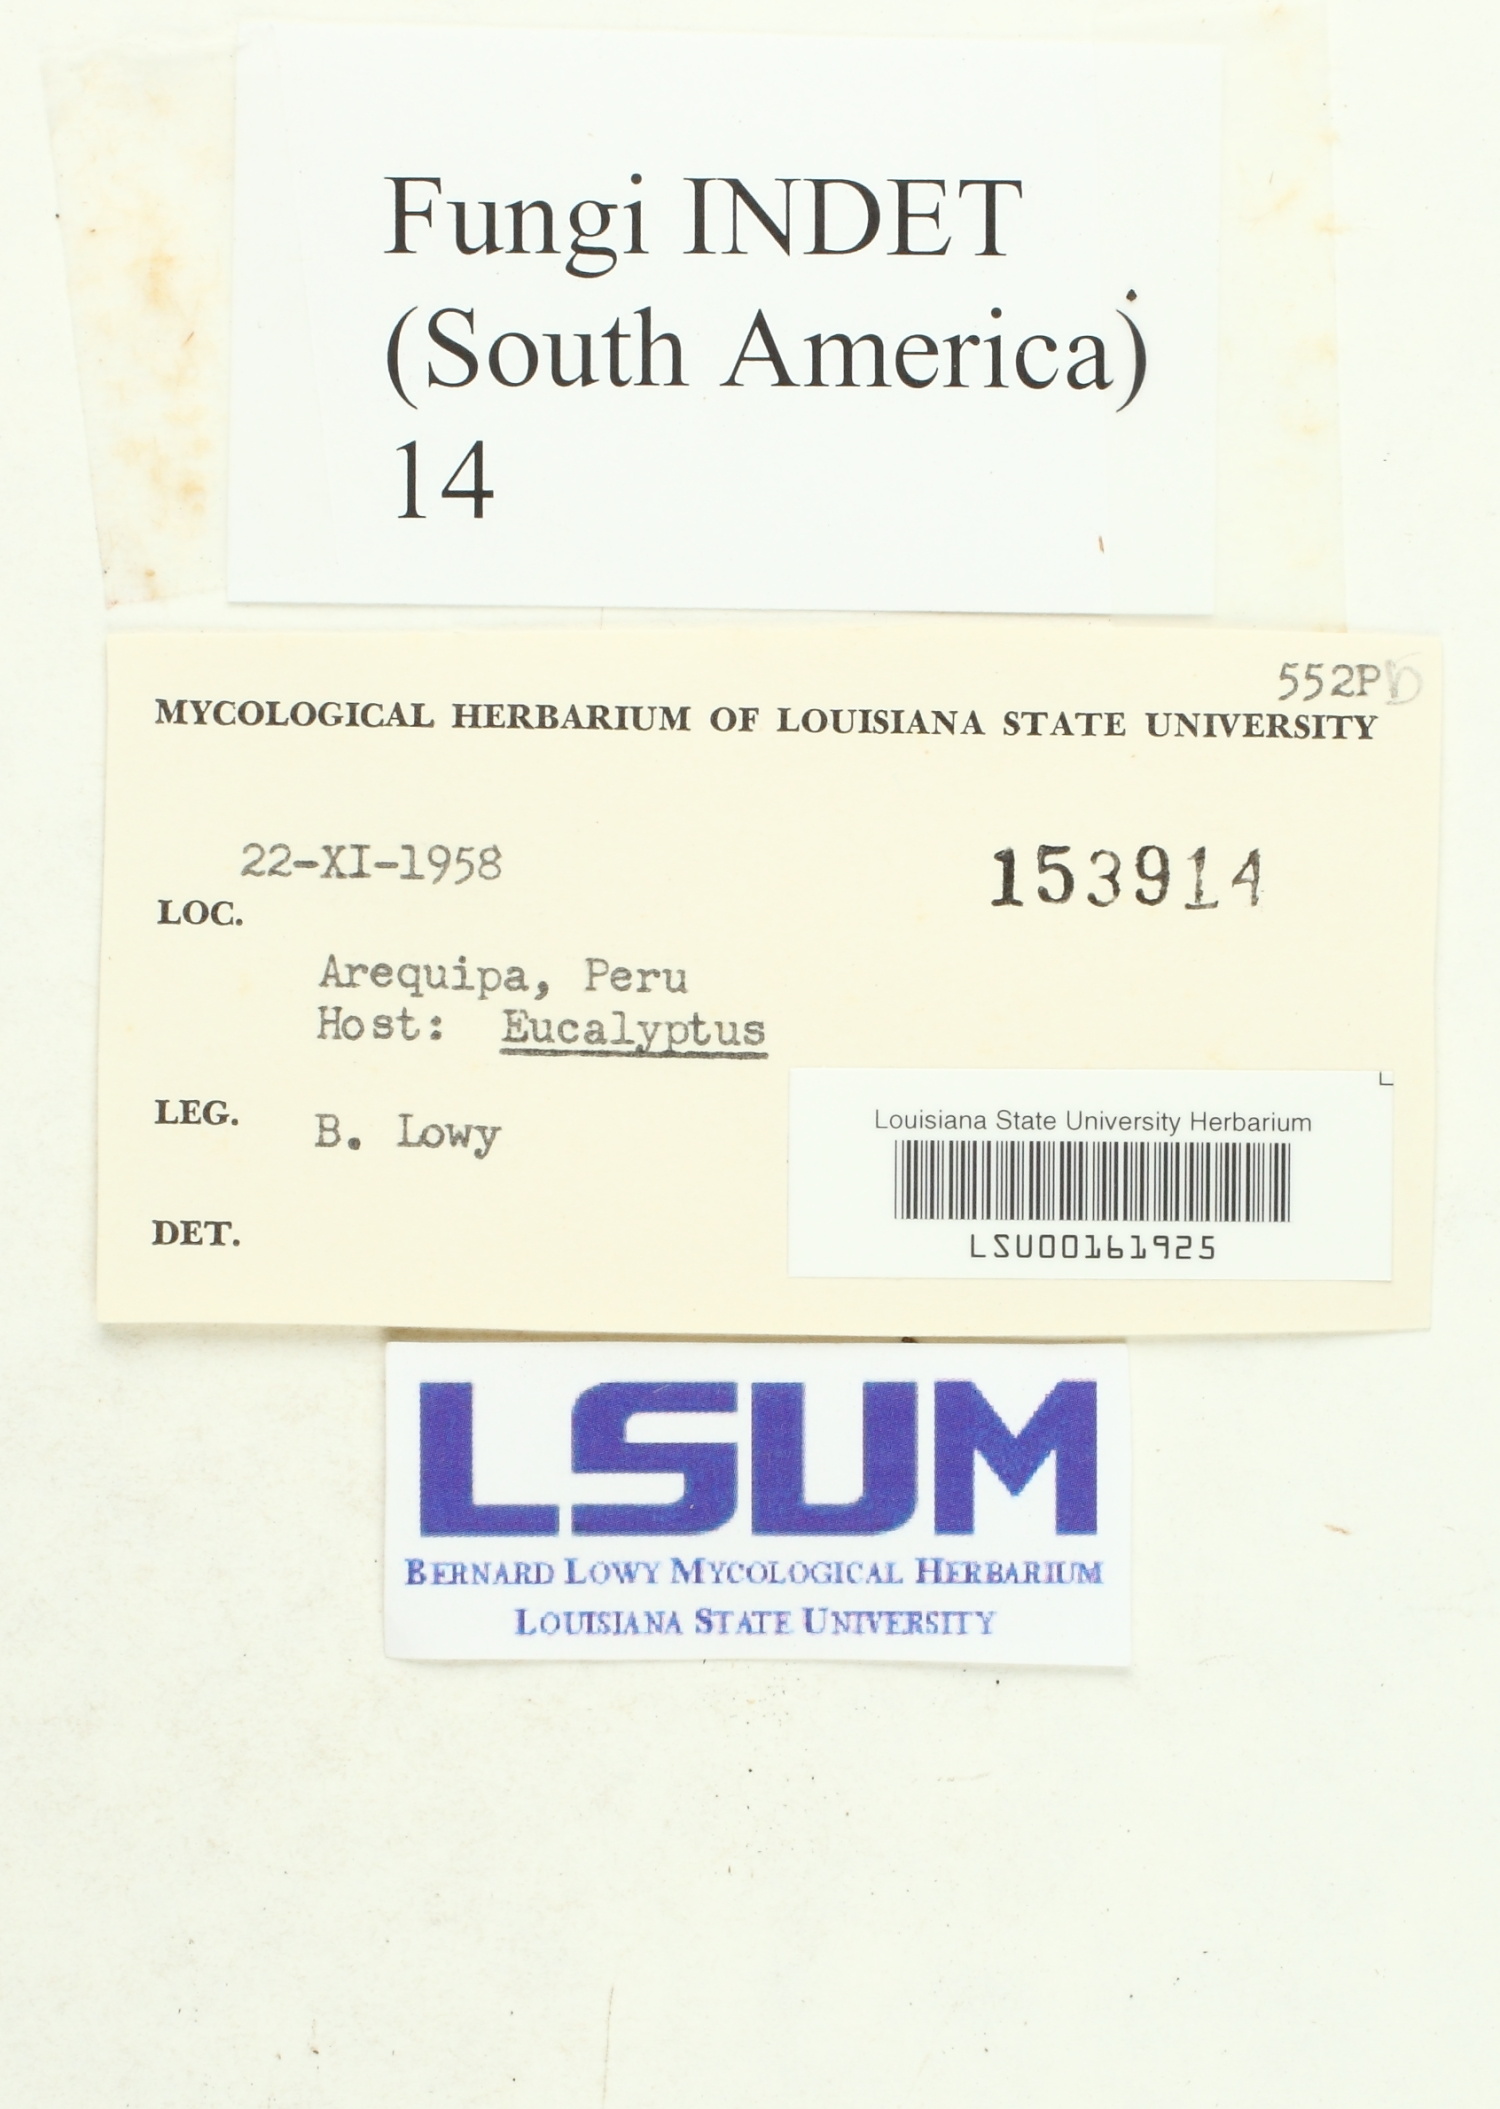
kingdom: Fungi
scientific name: Fungi
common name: Fungi
